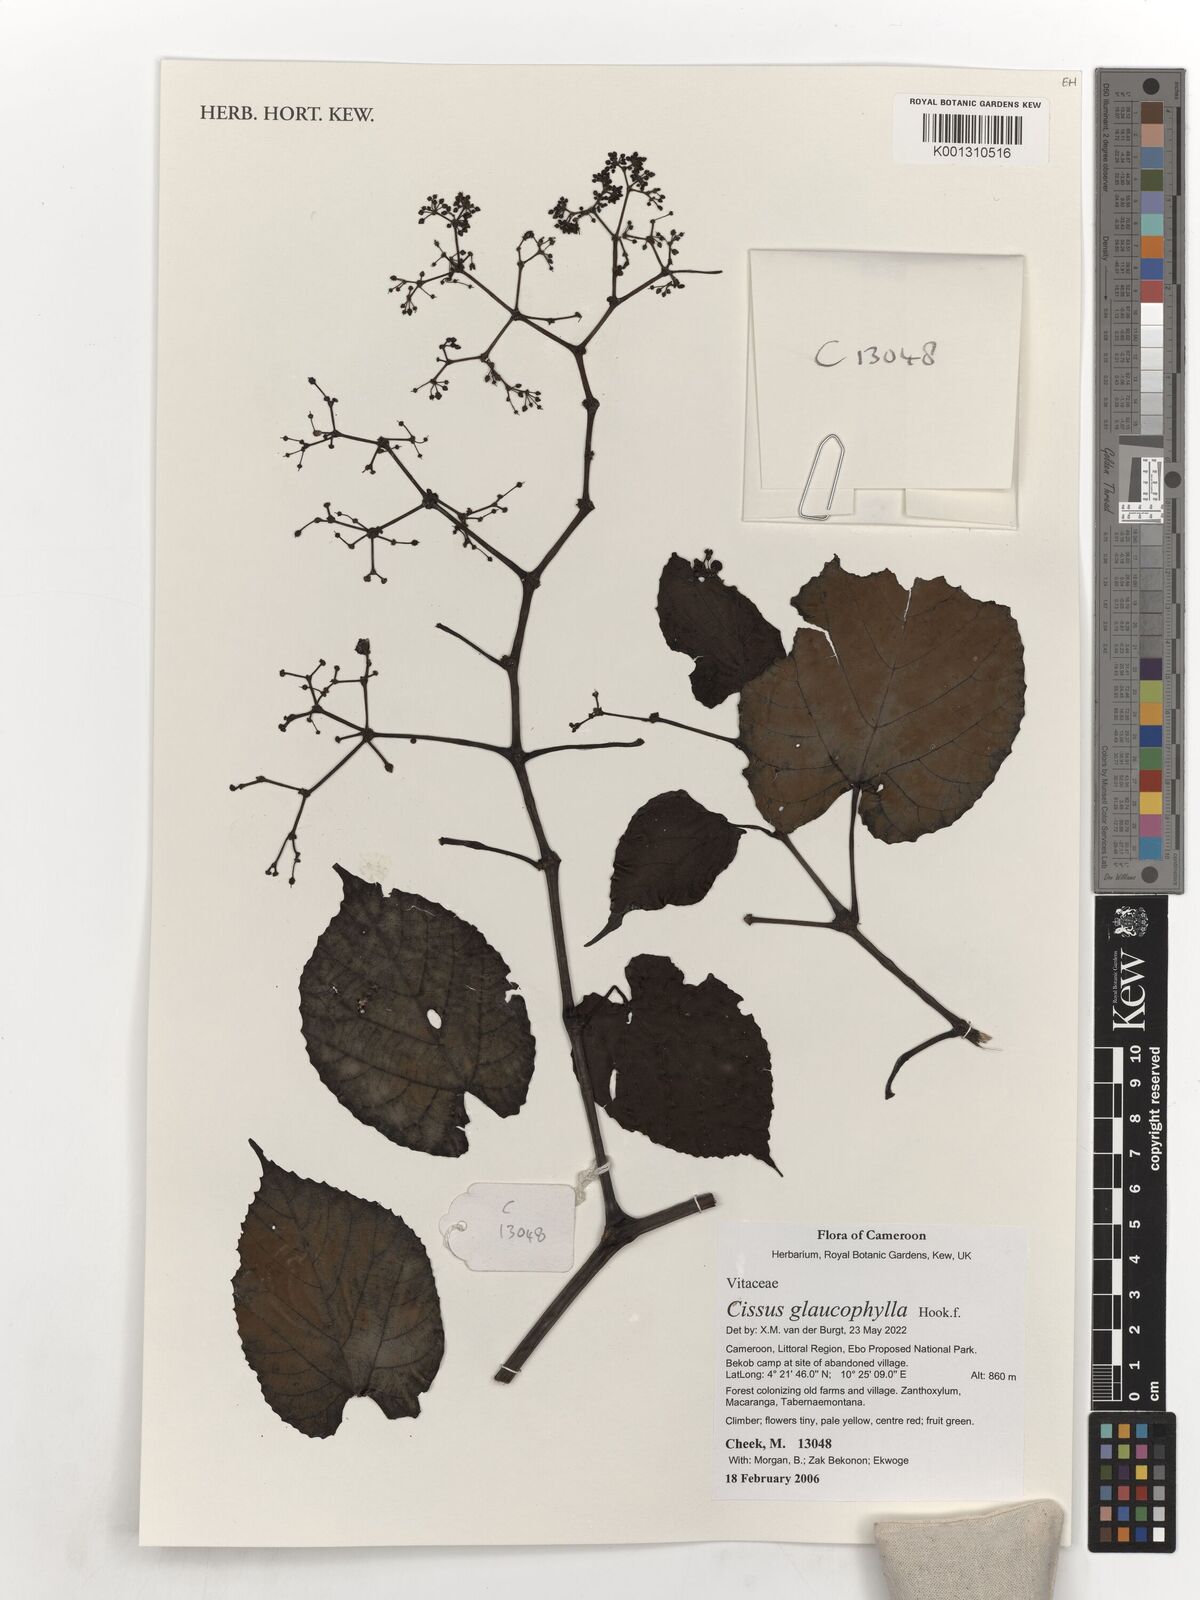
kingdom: Plantae
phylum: Tracheophyta
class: Magnoliopsida
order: Vitales
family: Vitaceae
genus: Cissus
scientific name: Cissus glaucophylla
